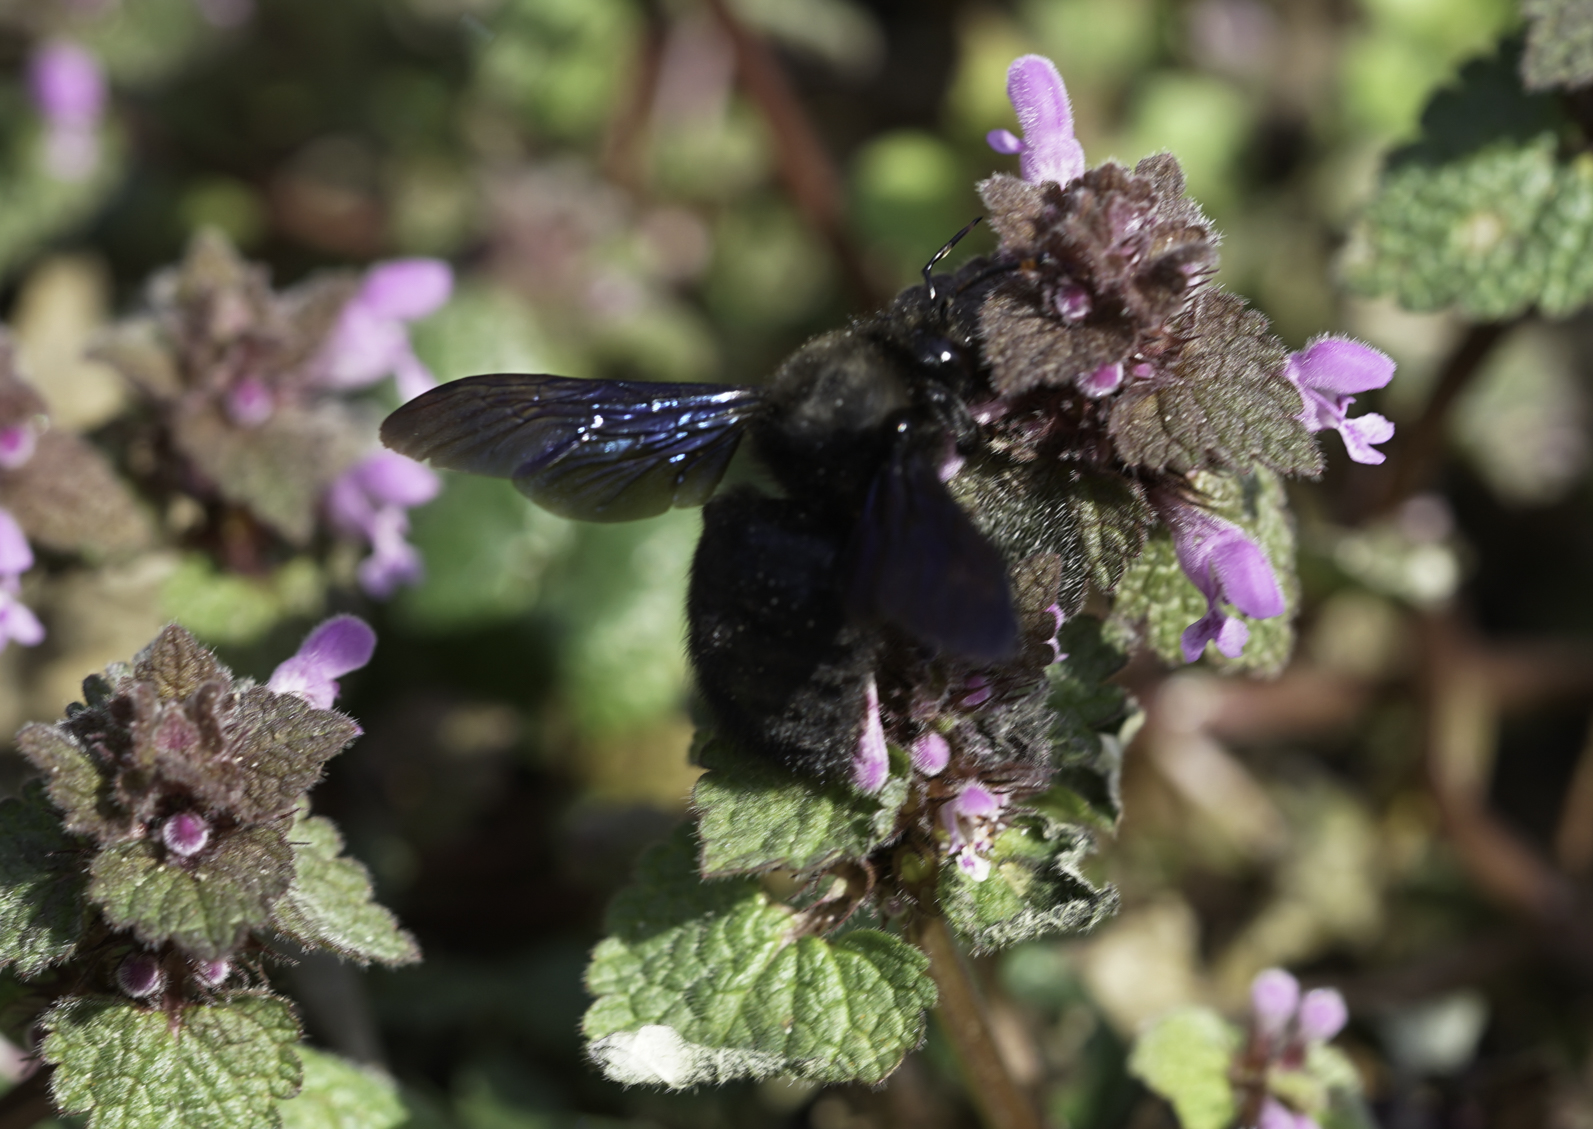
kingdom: Animalia
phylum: Arthropoda
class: Insecta
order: Hymenoptera
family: Apidae
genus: Xylocopa
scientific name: Xylocopa violacea
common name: Violet carpenter bee
